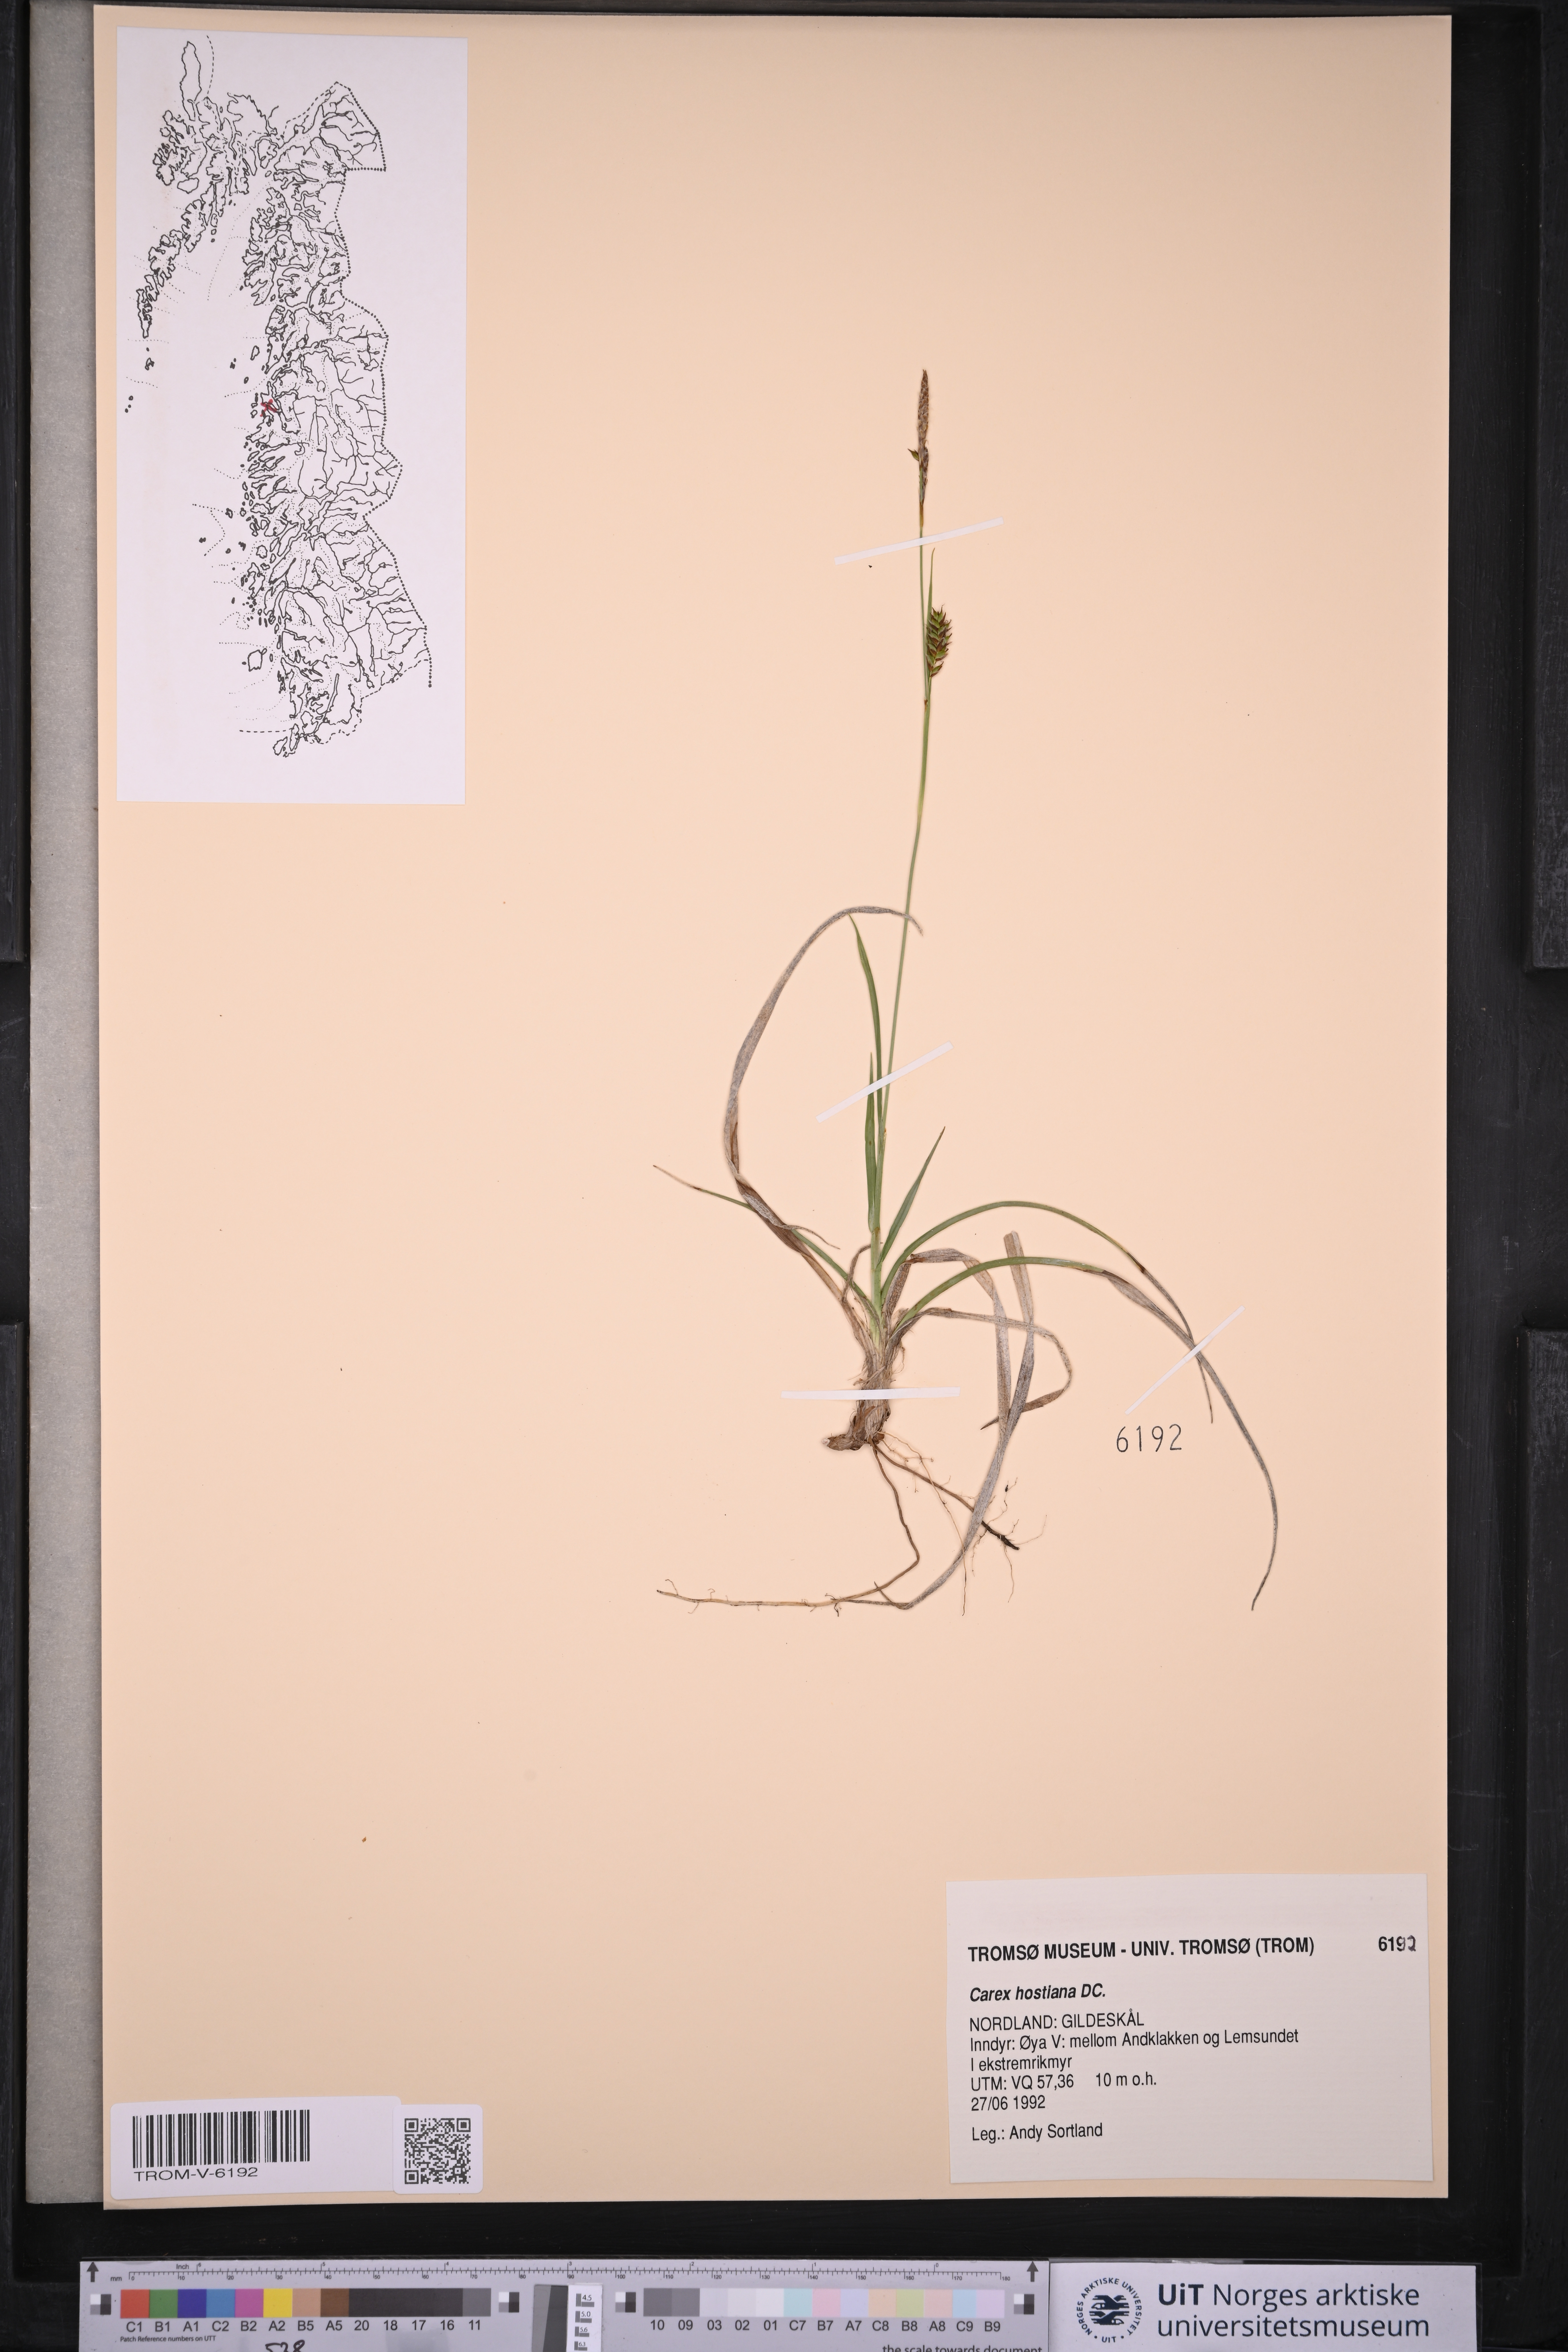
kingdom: Plantae
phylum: Tracheophyta
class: Liliopsida
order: Poales
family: Cyperaceae
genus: Carex
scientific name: Carex hostiana
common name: Tawny sedge
